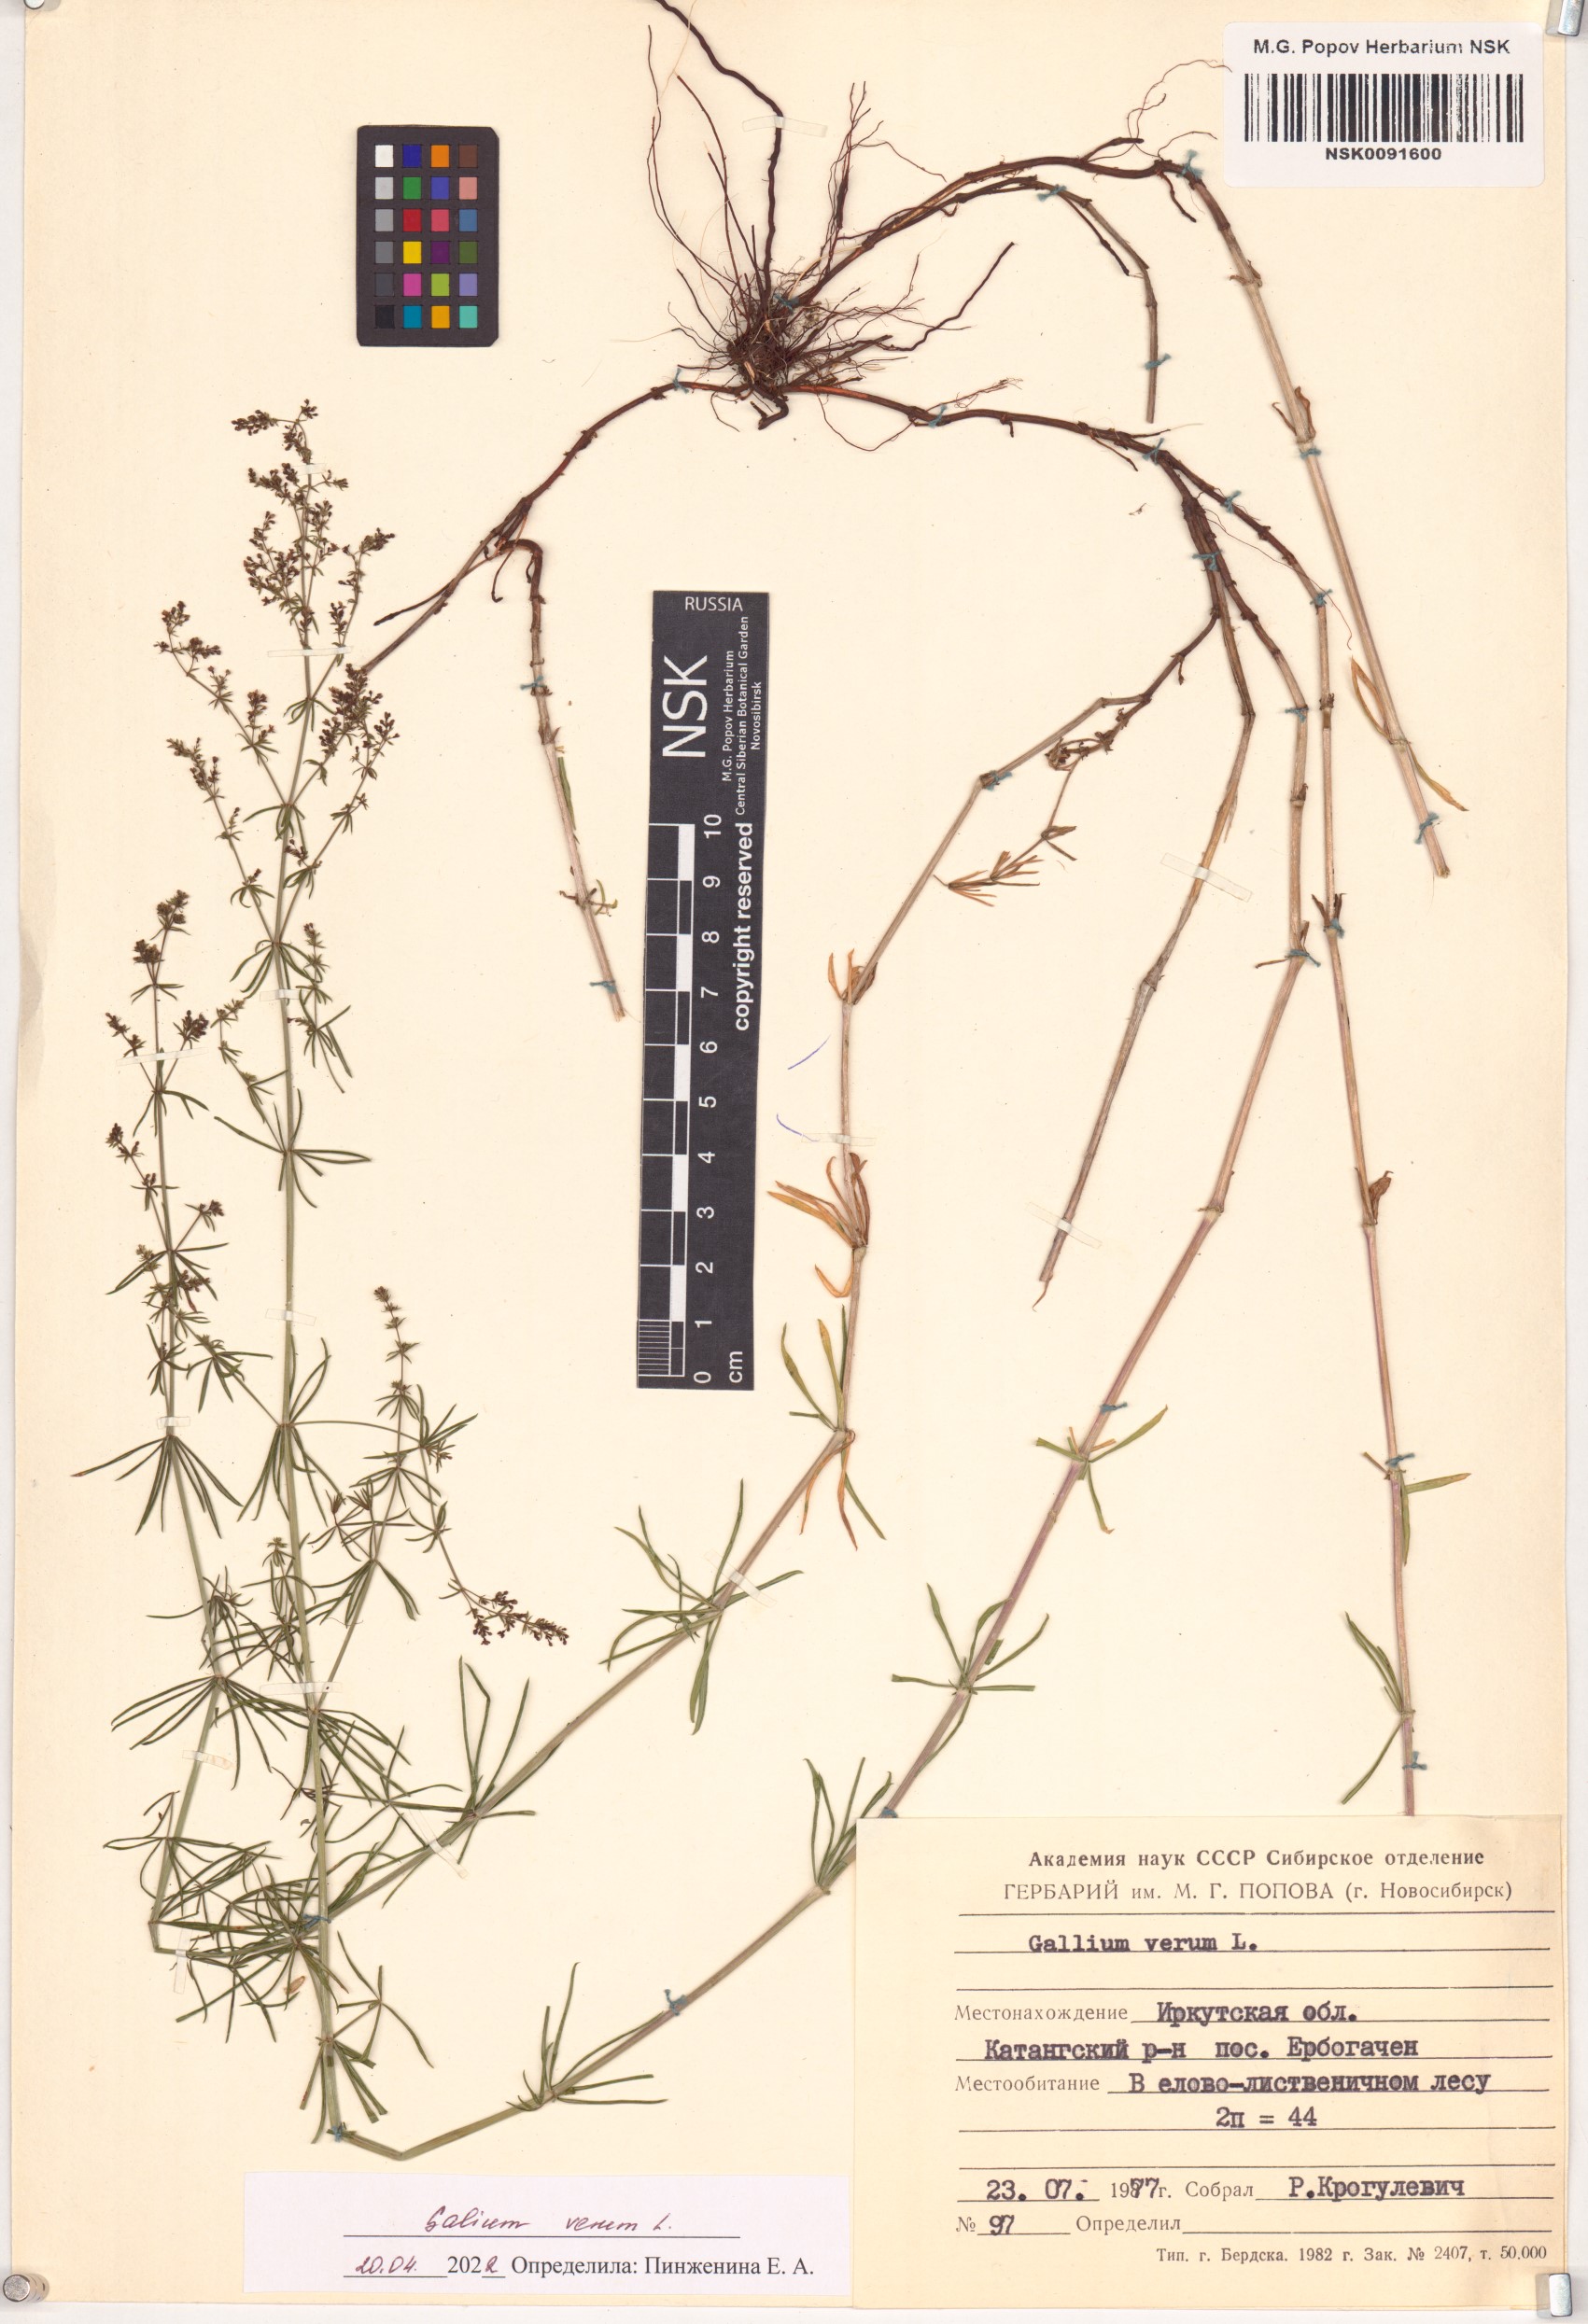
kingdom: Plantae
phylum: Tracheophyta
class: Magnoliopsida
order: Gentianales
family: Rubiaceae
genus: Galium
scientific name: Galium verum
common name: Lady's bedstraw
